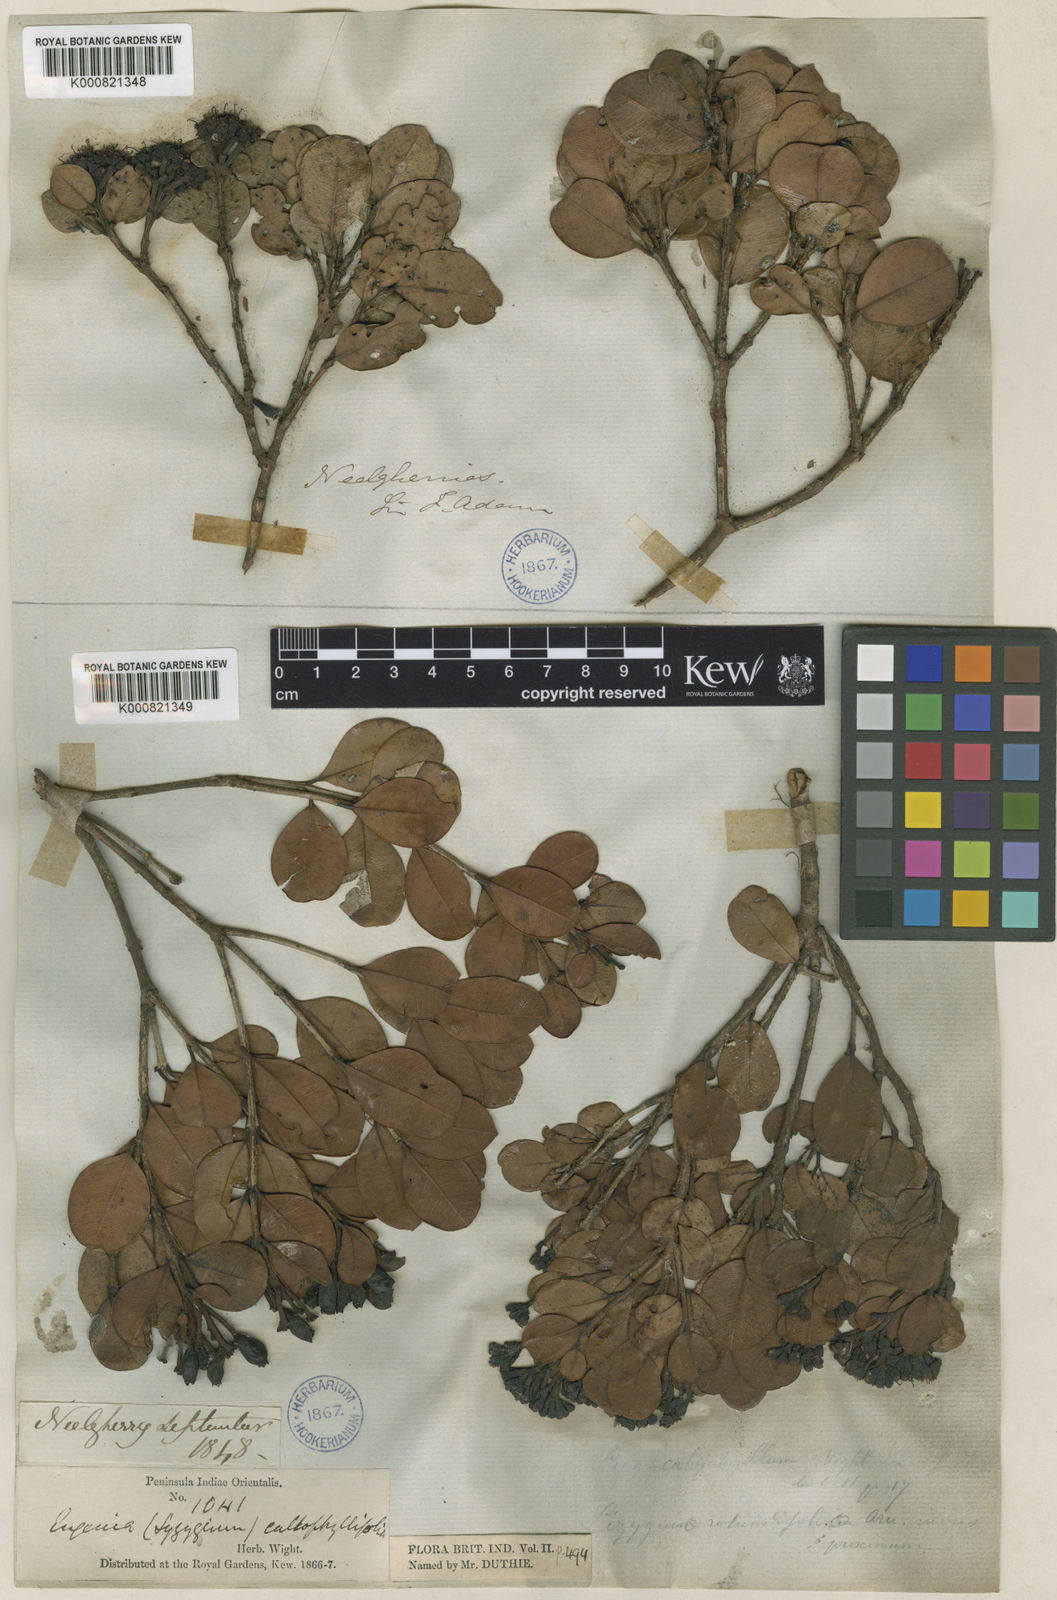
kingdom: Plantae
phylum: Tracheophyta
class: Magnoliopsida
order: Myrtales
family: Myrtaceae
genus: Syzygium
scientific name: Syzygium calophyllifolium
